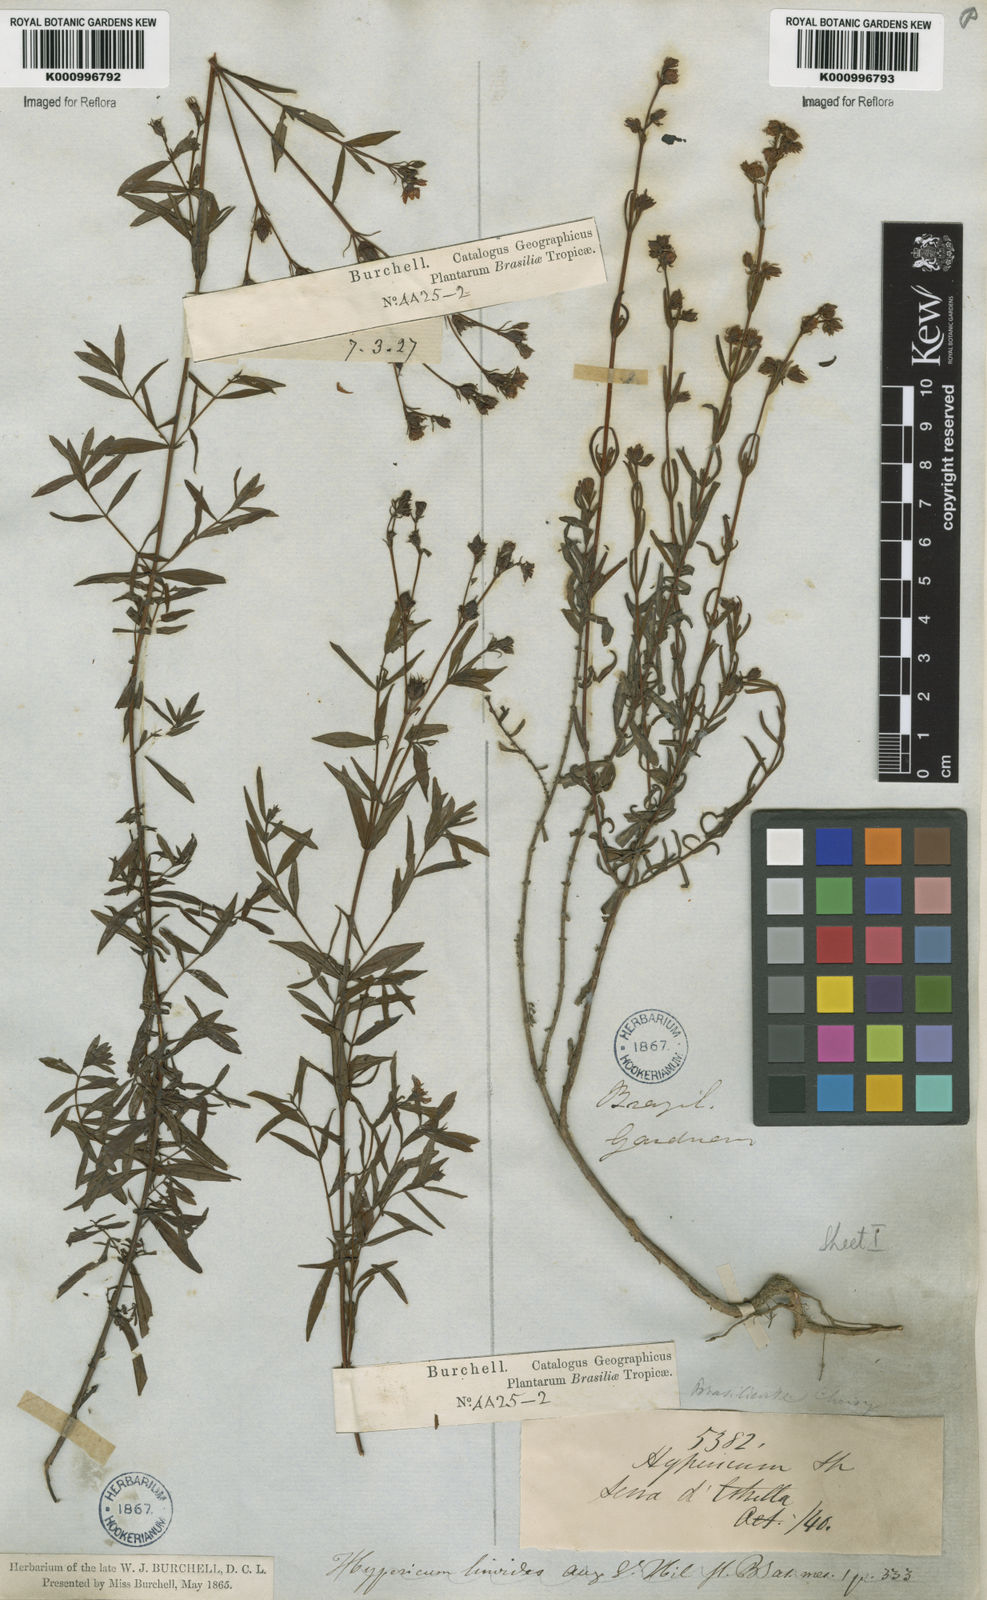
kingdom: Plantae
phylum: Tracheophyta
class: Magnoliopsida
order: Malpighiales
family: Hypericaceae
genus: Hypericum
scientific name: Hypericum brasiliense
